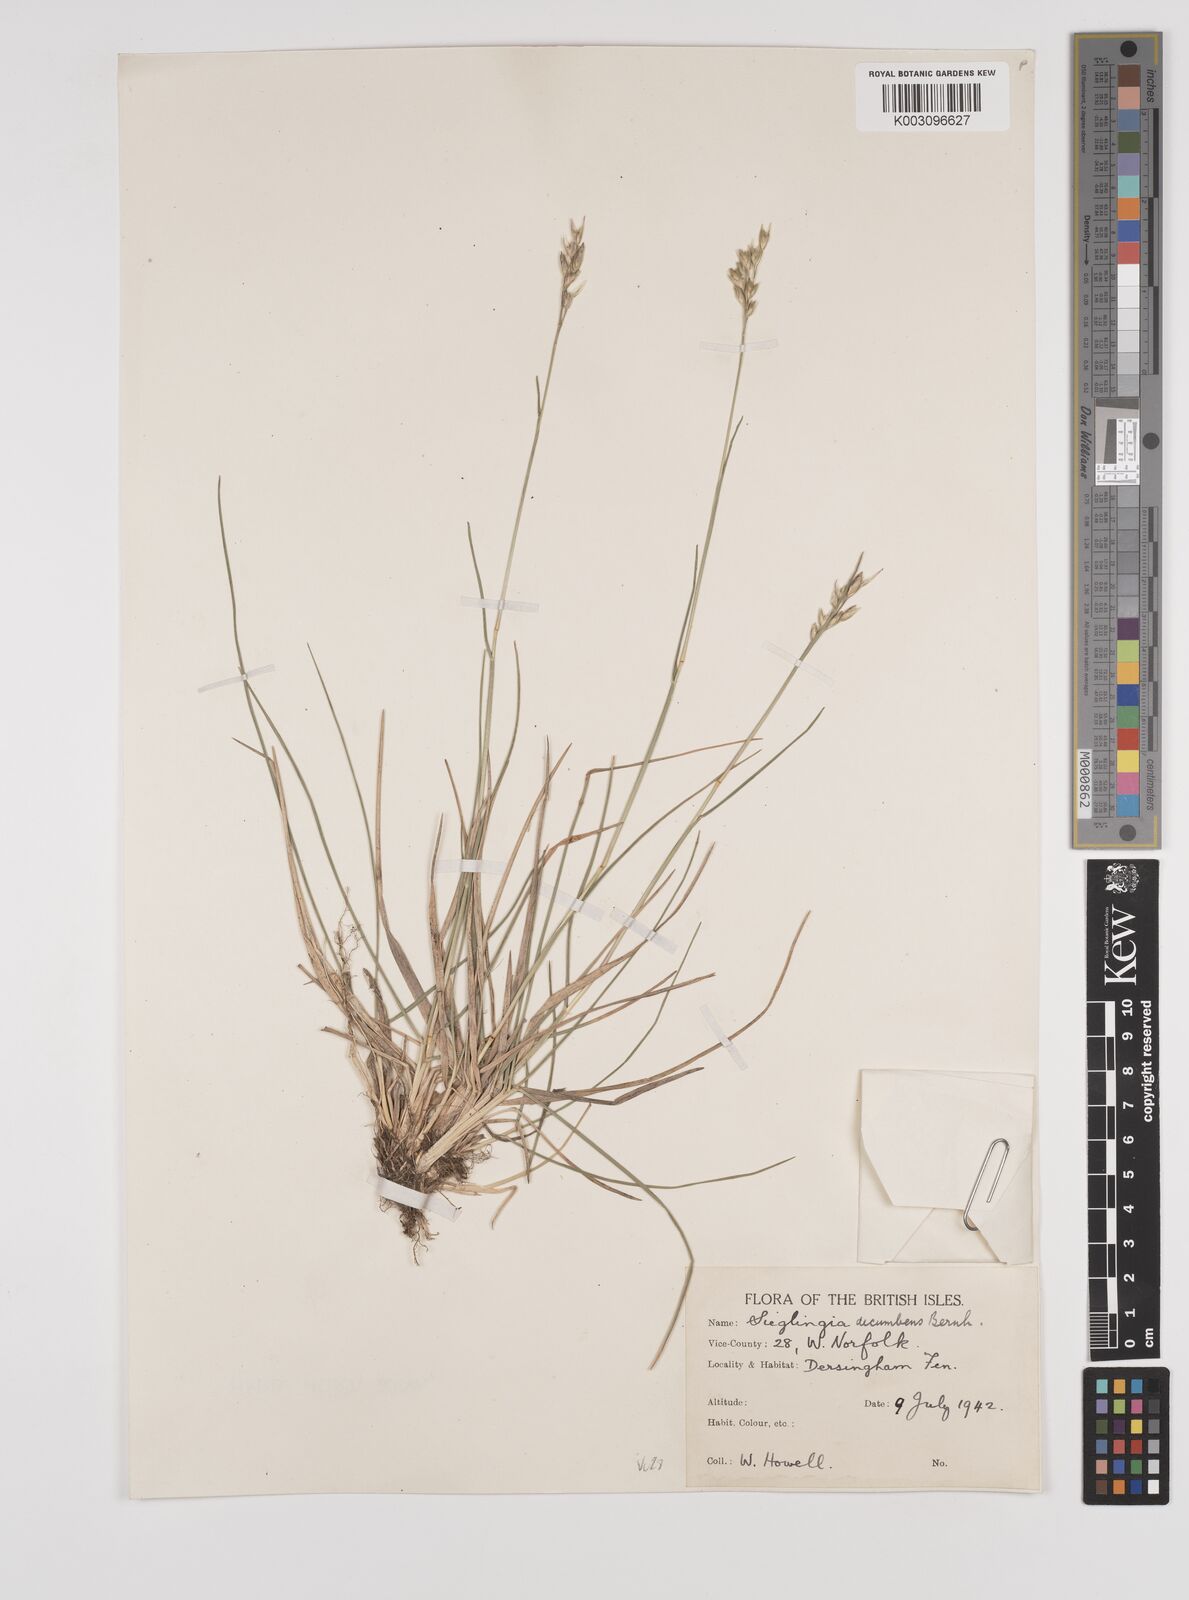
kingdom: Plantae
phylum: Tracheophyta
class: Liliopsida
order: Poales
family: Poaceae
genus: Danthonia
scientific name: Danthonia decumbens
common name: Common heathgrass
